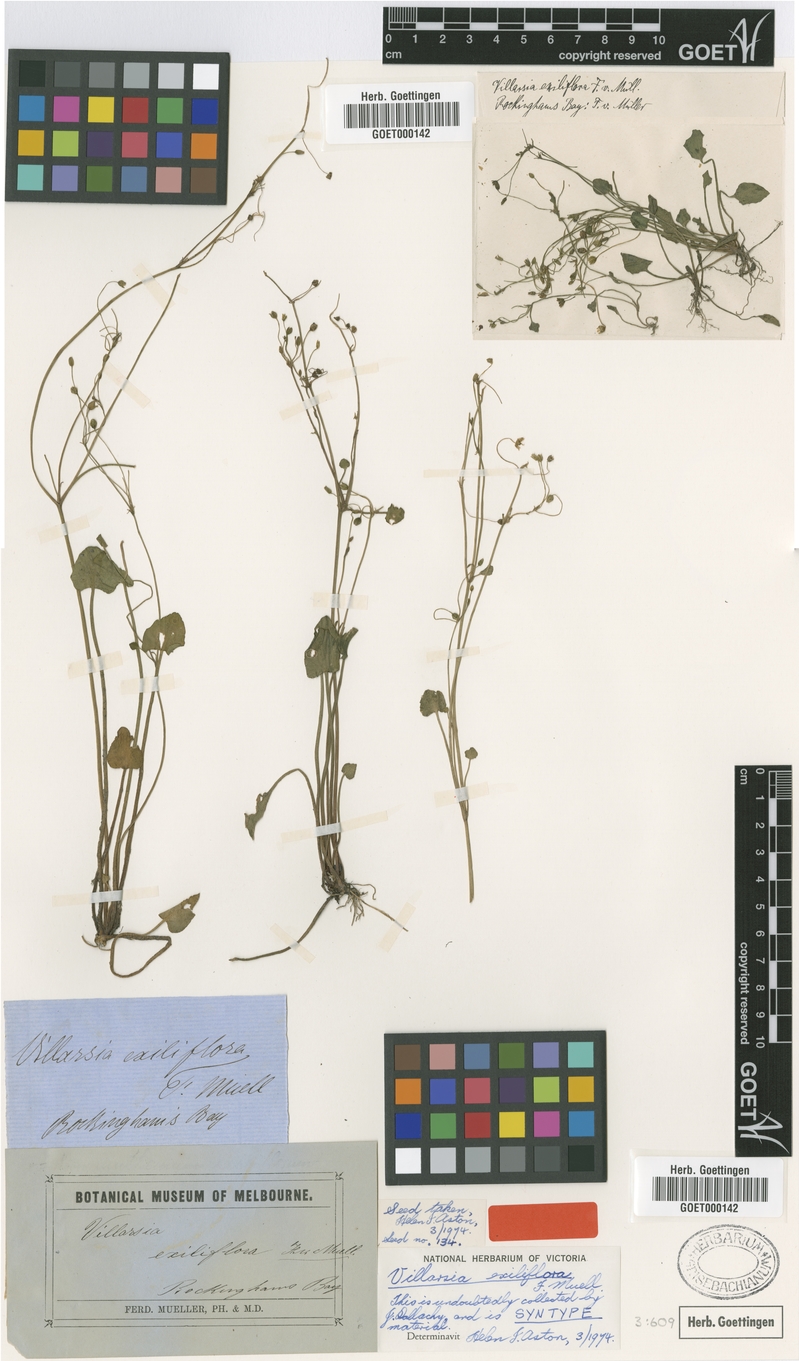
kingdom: Plantae
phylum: Tracheophyta
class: Magnoliopsida
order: Asterales
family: Menyanthaceae
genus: Nymphoides
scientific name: Nymphoides exiliflora
